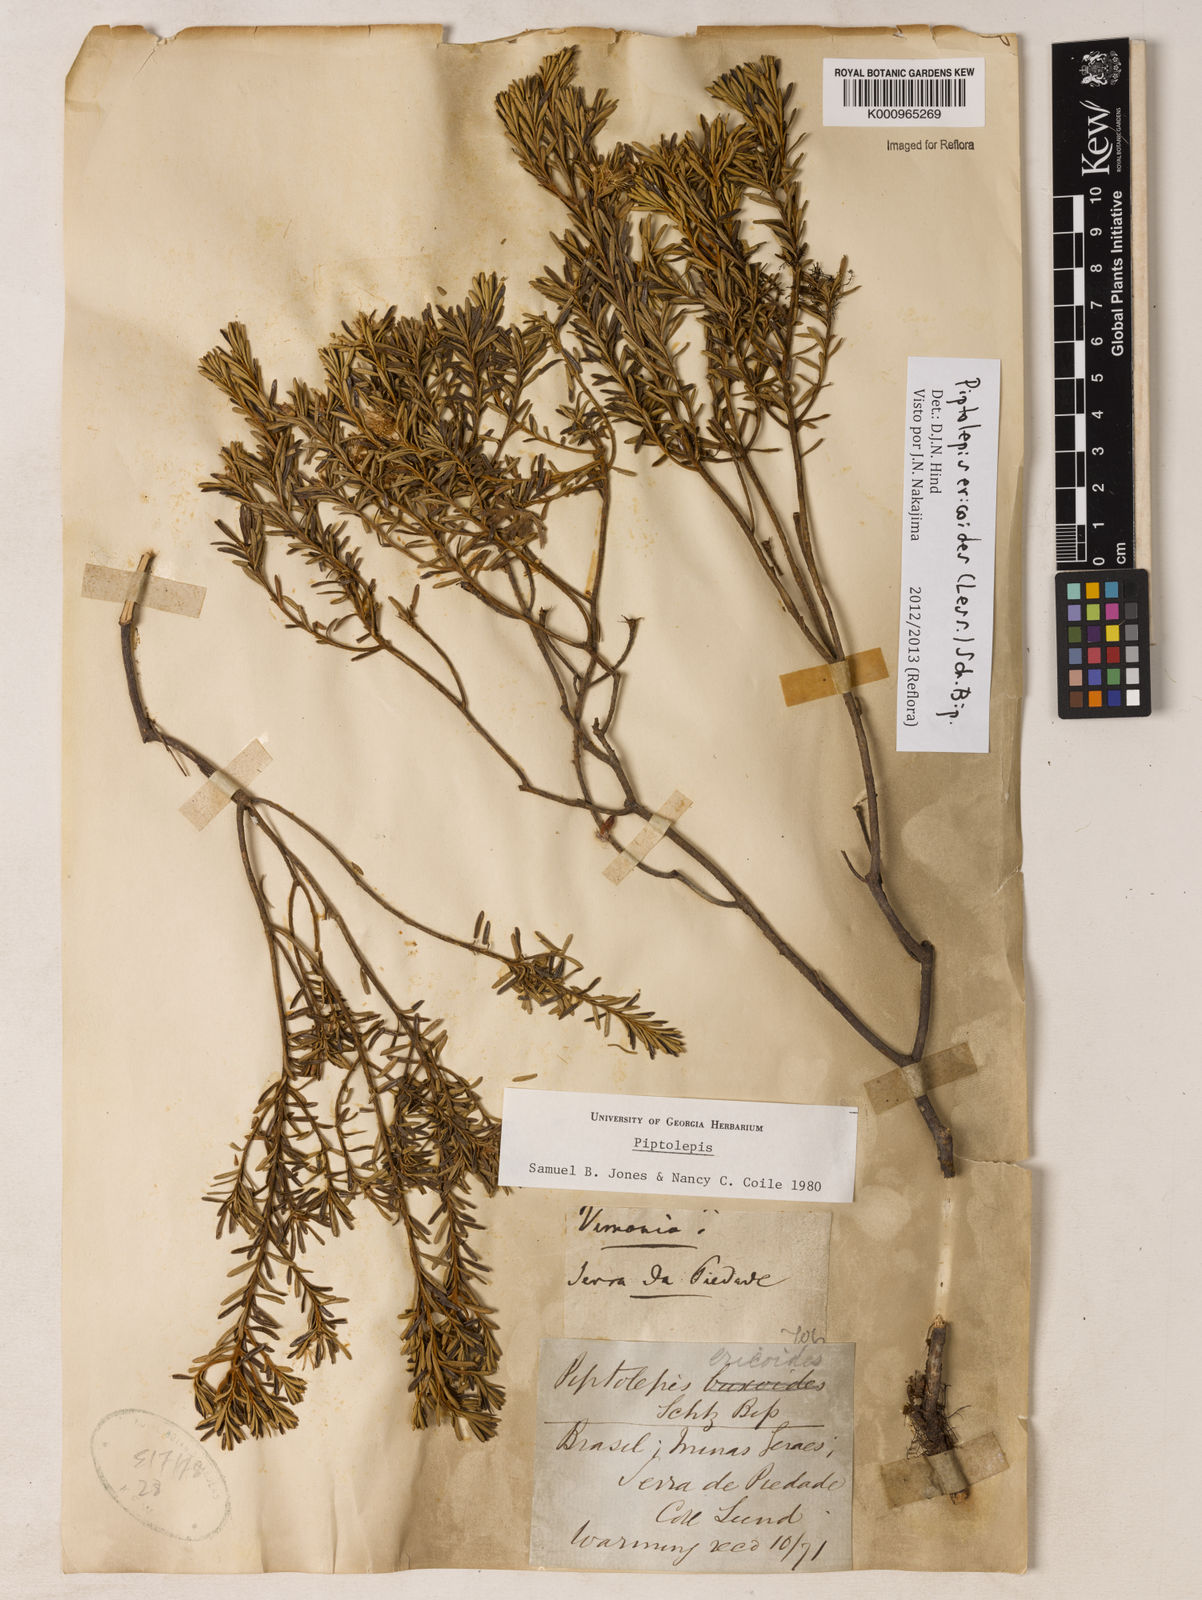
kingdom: Plantae
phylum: Tracheophyta
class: Magnoliopsida
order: Asterales
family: Asteraceae
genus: Piptolepis
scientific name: Piptolepis ericoides
